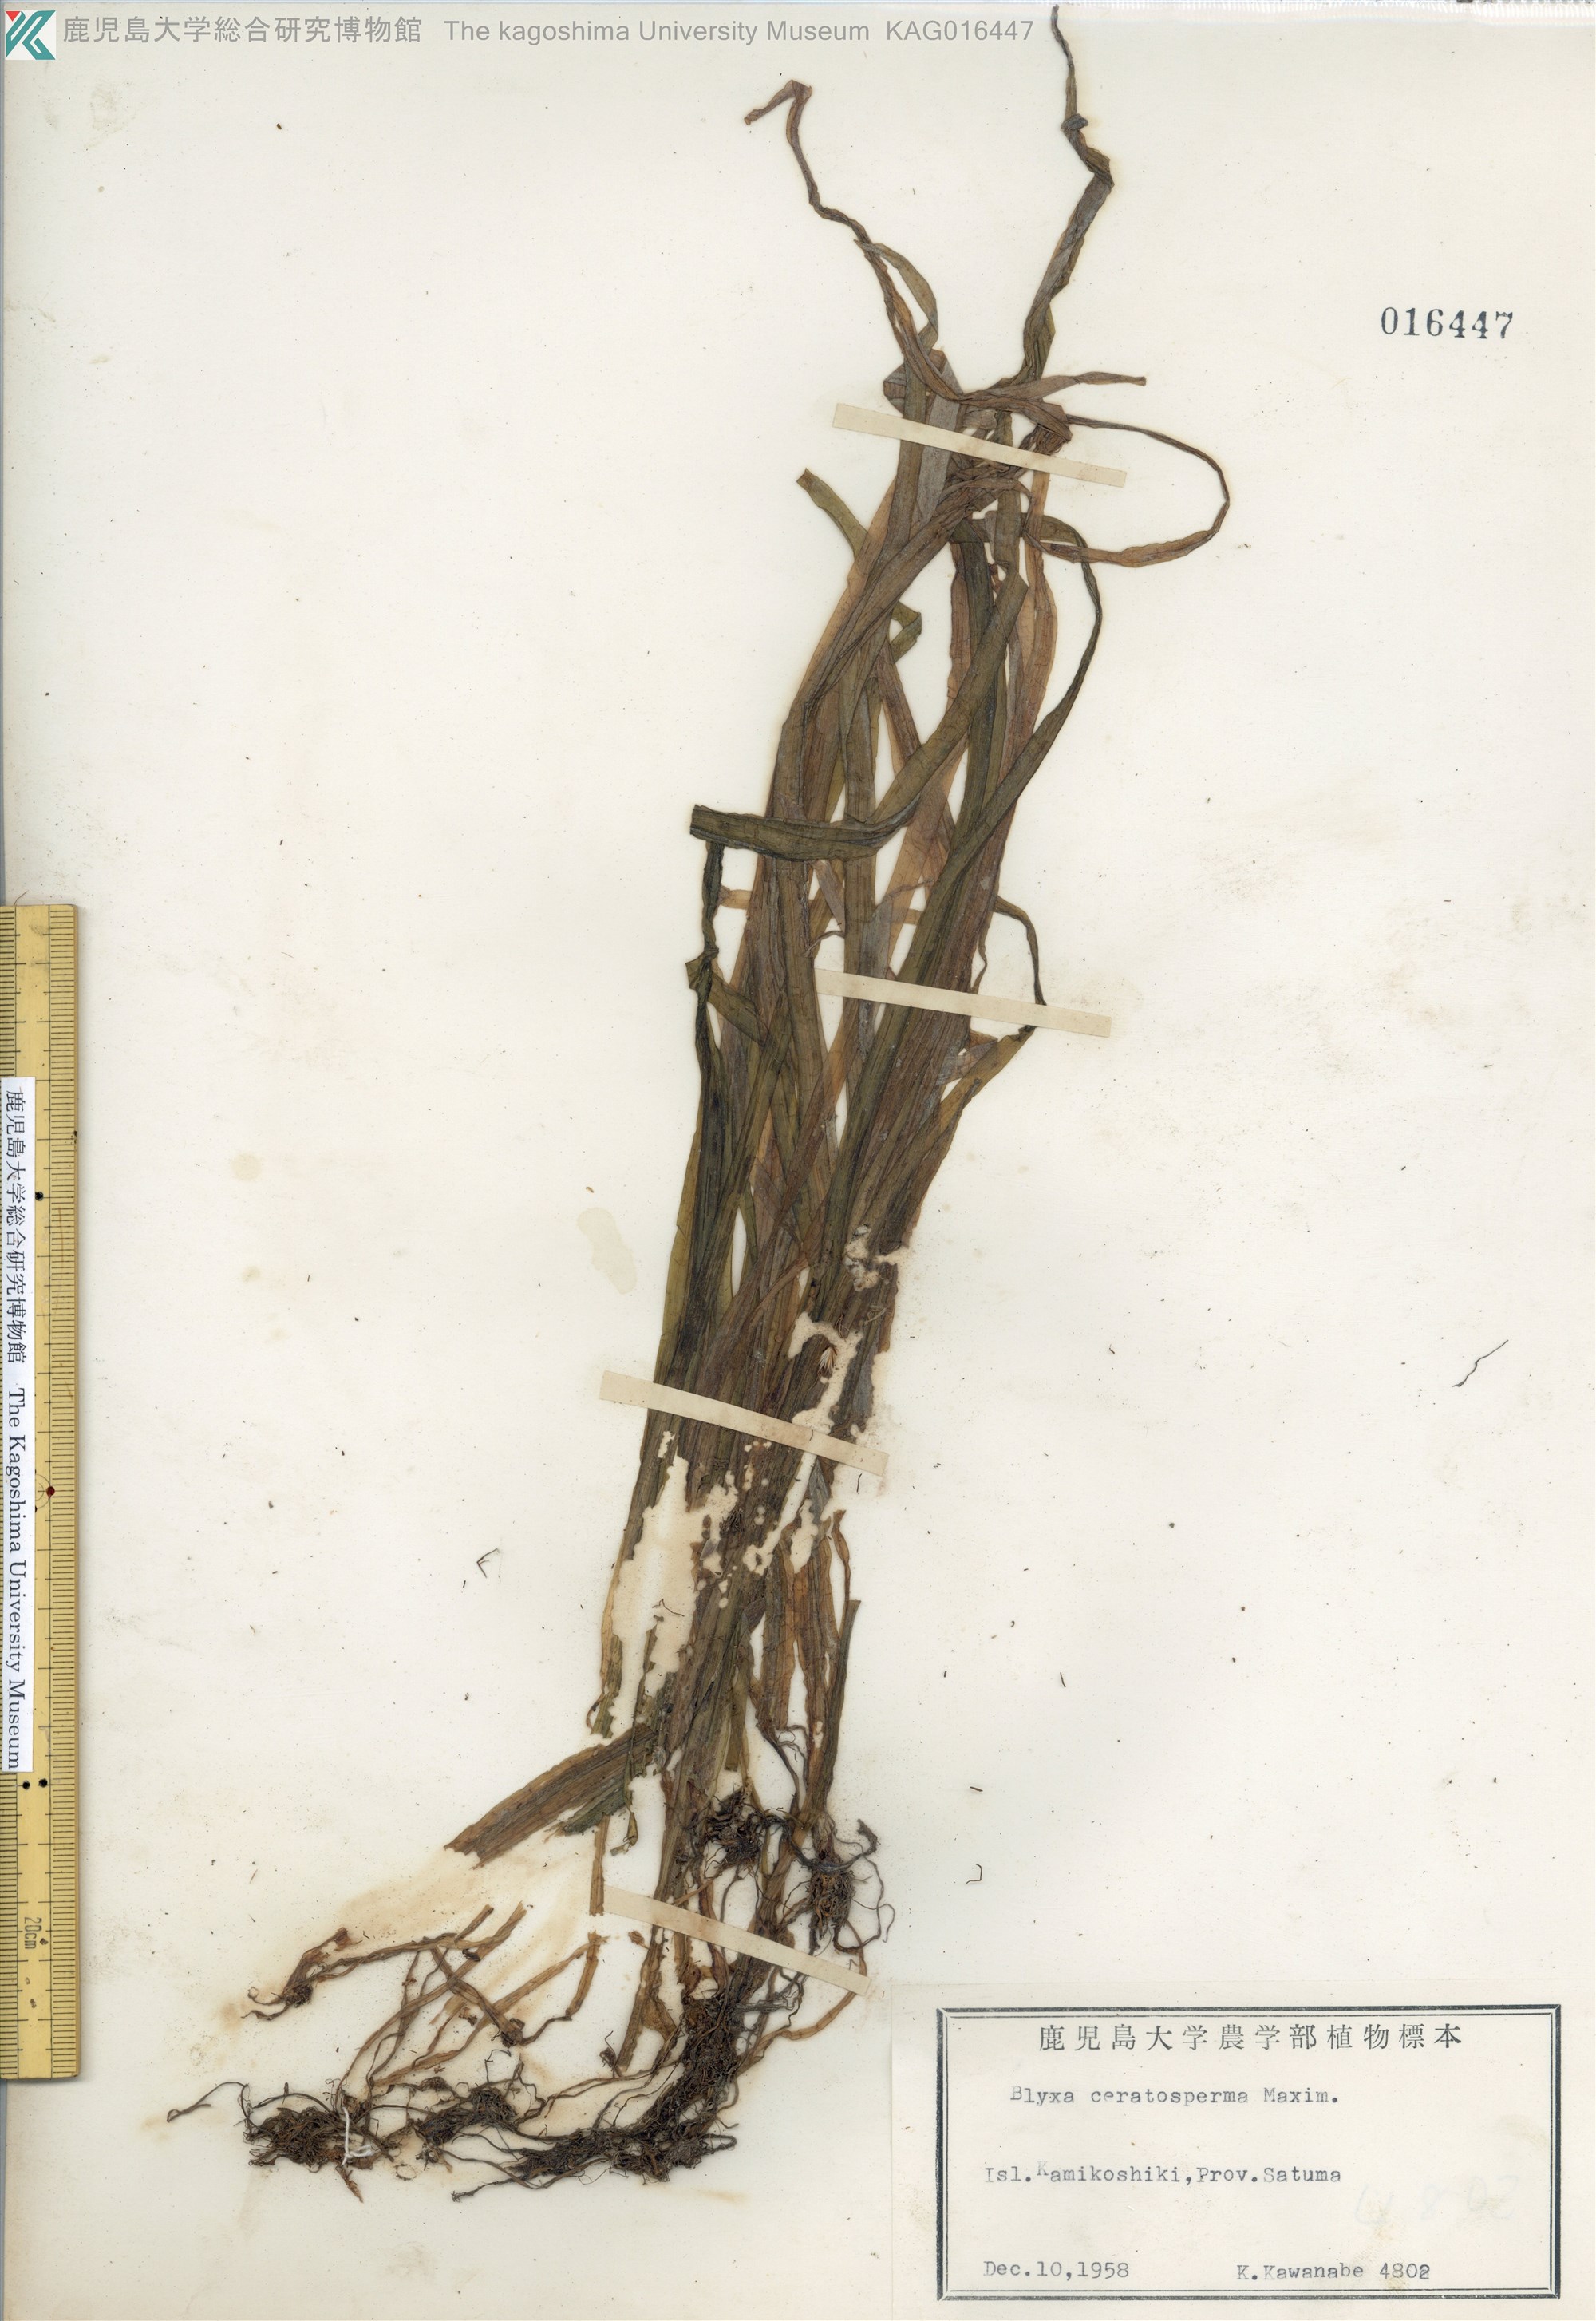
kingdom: Plantae
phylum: Tracheophyta
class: Liliopsida
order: Alismatales
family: Hydrocharitaceae
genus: Blyxa
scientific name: Blyxa echinosperma
